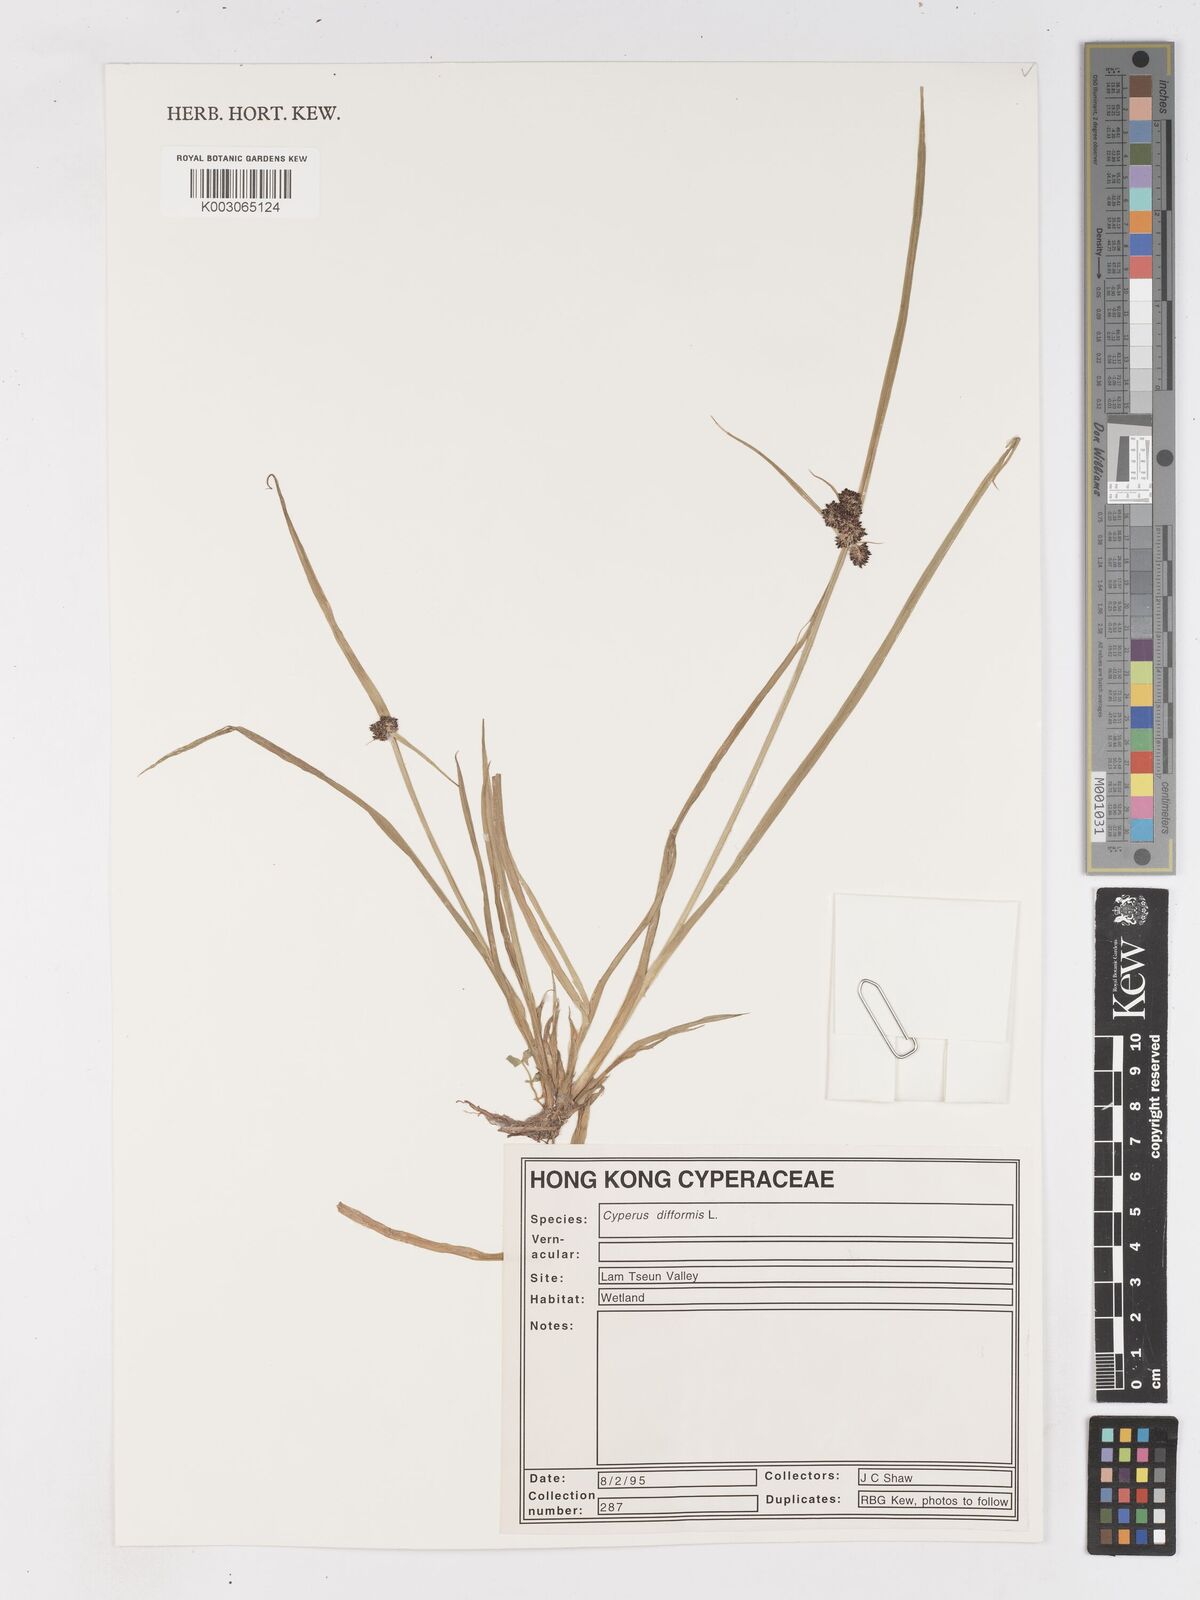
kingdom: Plantae
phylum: Tracheophyta
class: Liliopsida
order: Poales
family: Cyperaceae
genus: Cyperus
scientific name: Cyperus difformis
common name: Variable flatsedge
